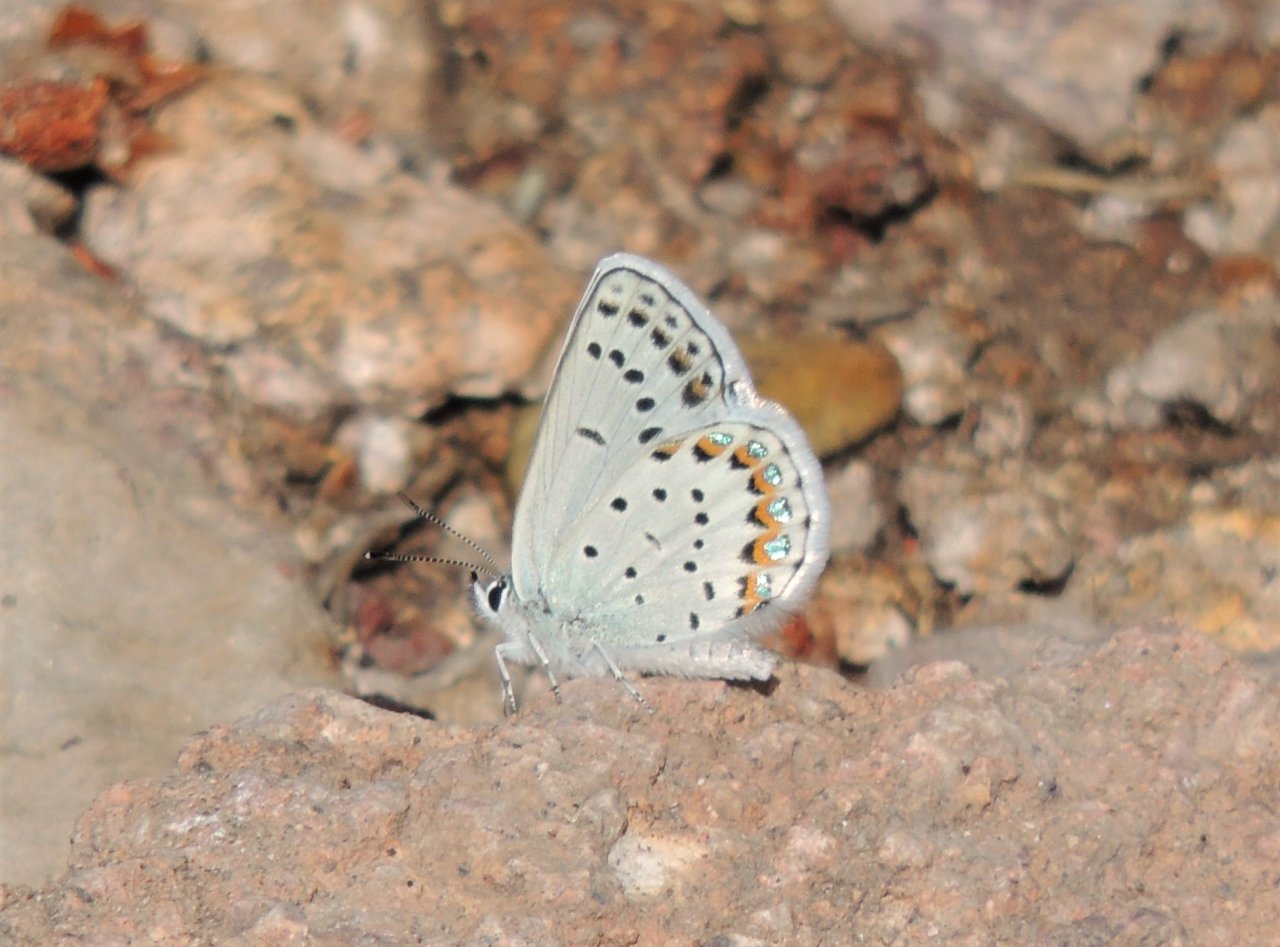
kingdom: Animalia
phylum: Arthropoda
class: Insecta
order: Lepidoptera
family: Lycaenidae
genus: Lycaeides
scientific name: Lycaeides melissa
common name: Melissa Blue
